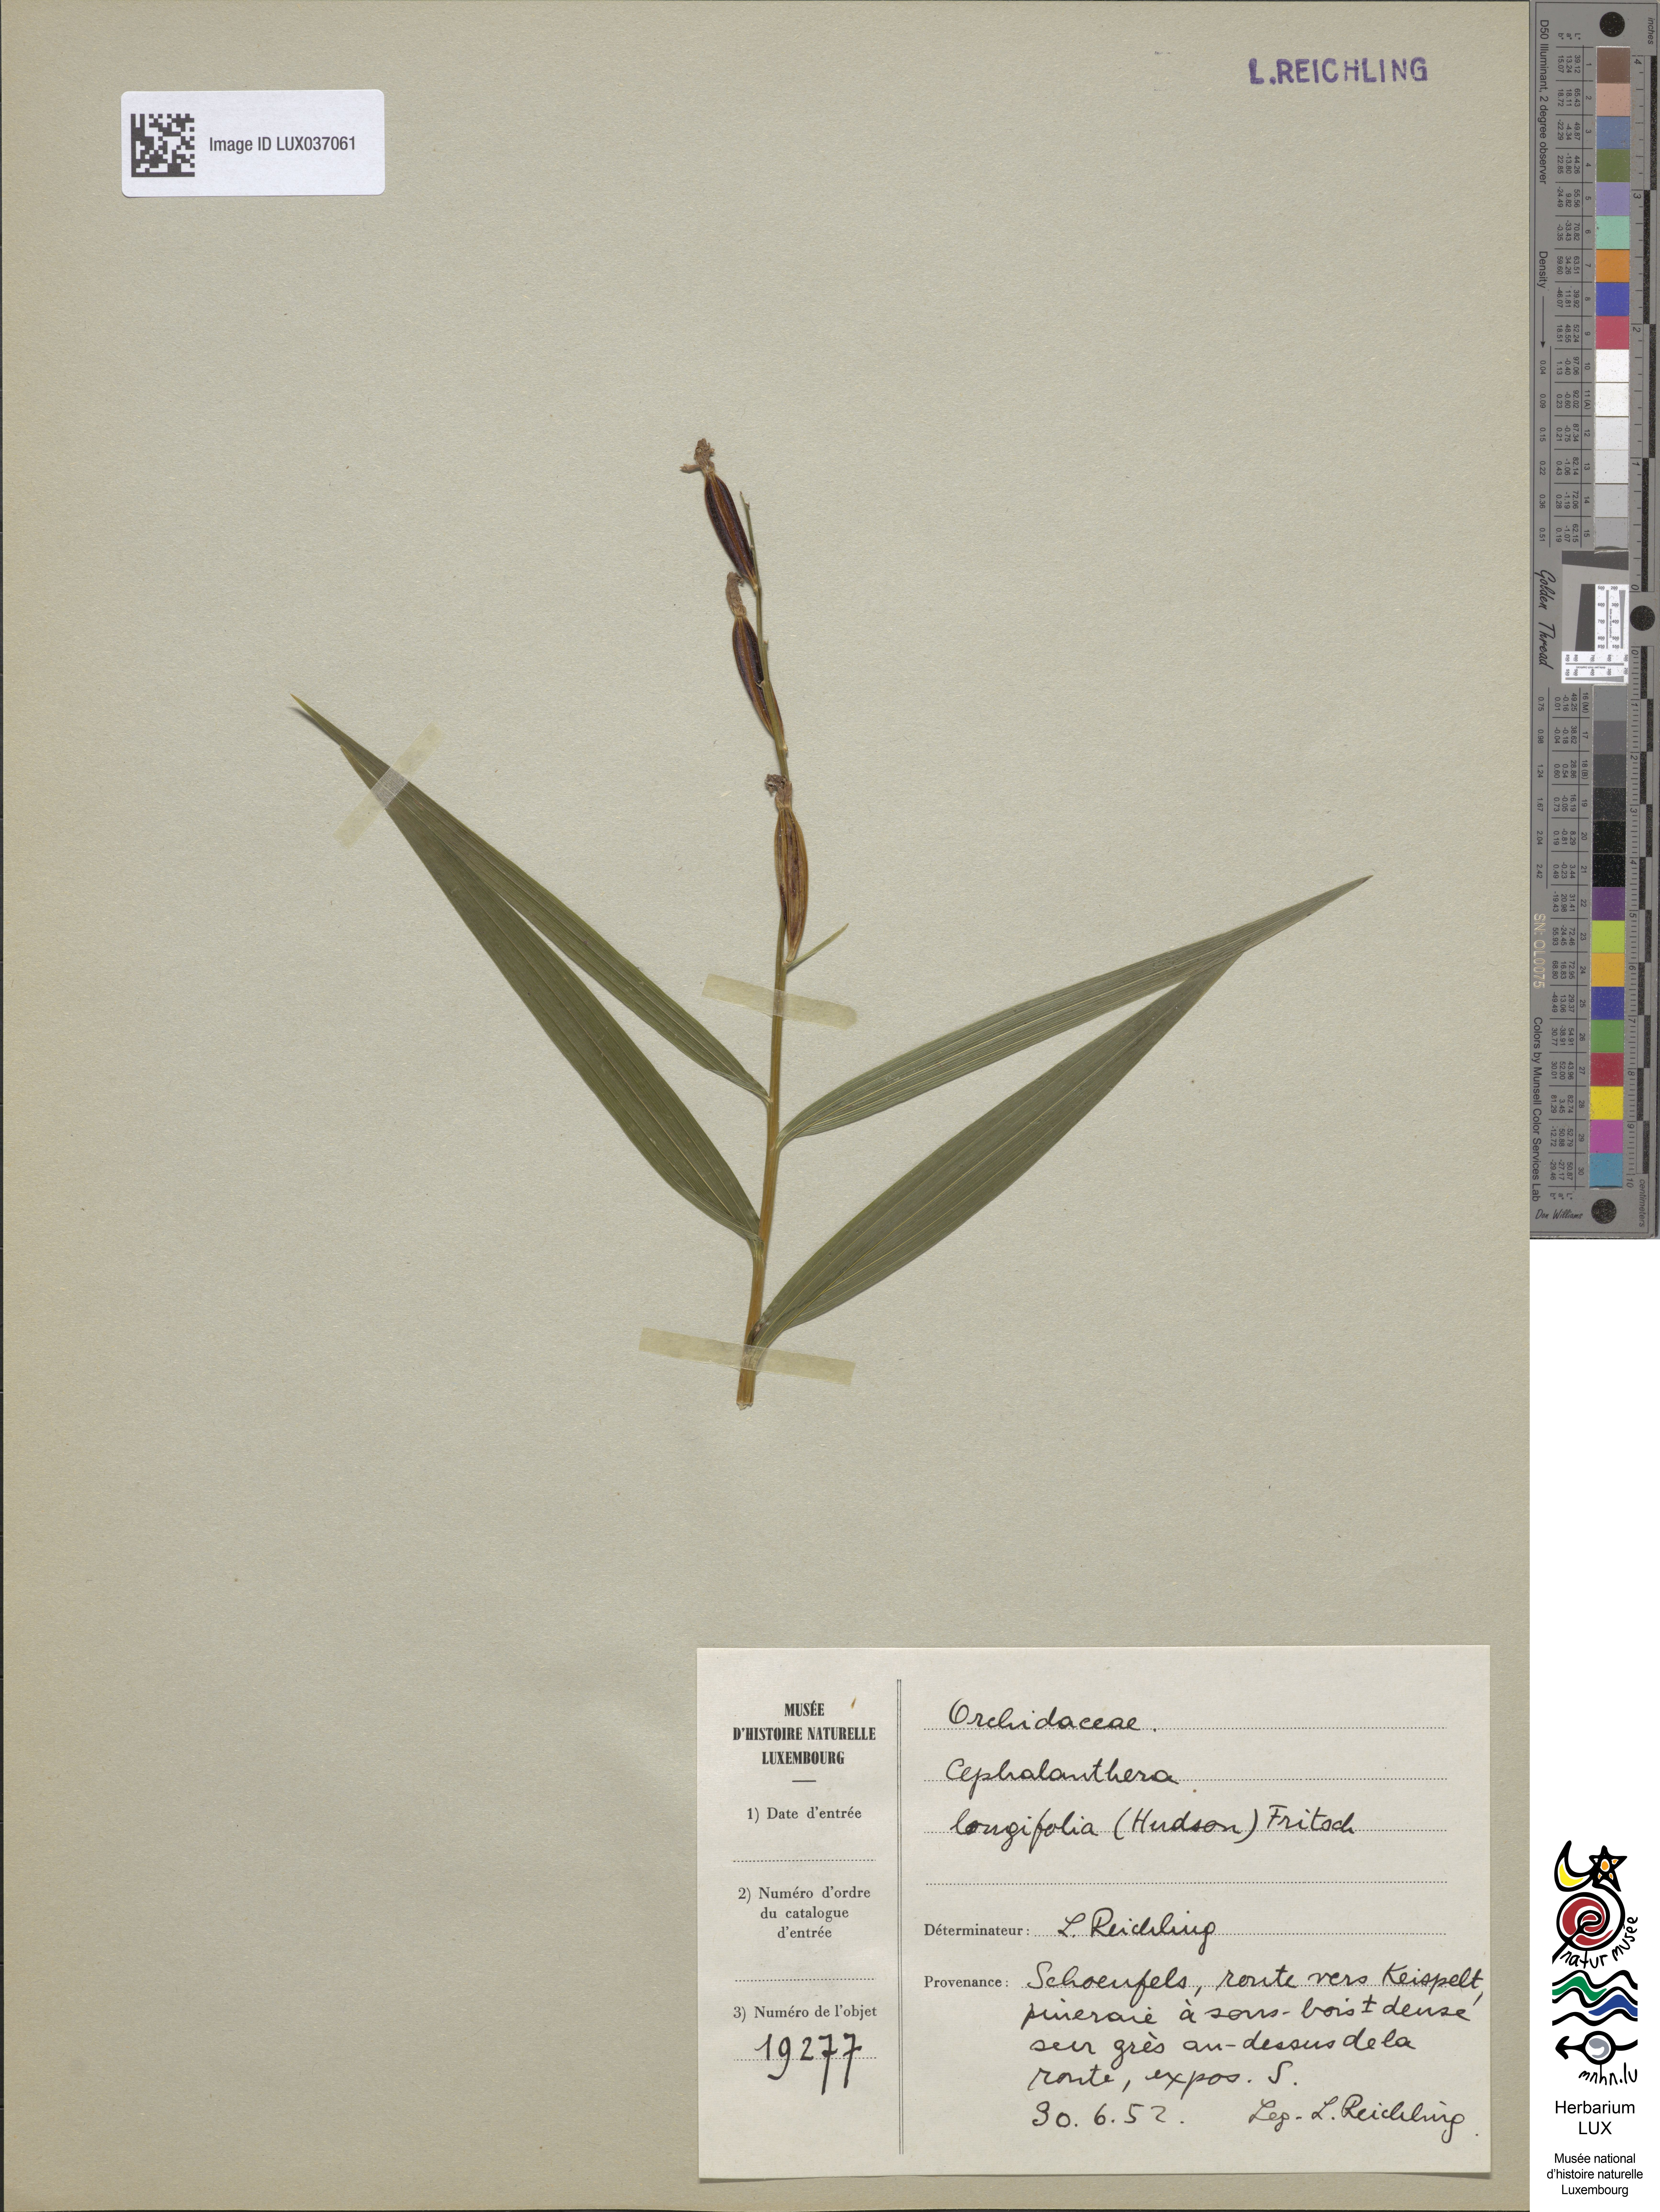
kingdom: Plantae
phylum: Tracheophyta
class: Liliopsida
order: Asparagales
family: Orchidaceae
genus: Cephalanthera
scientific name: Cephalanthera longifolia
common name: Narrow-leaved helleborine
